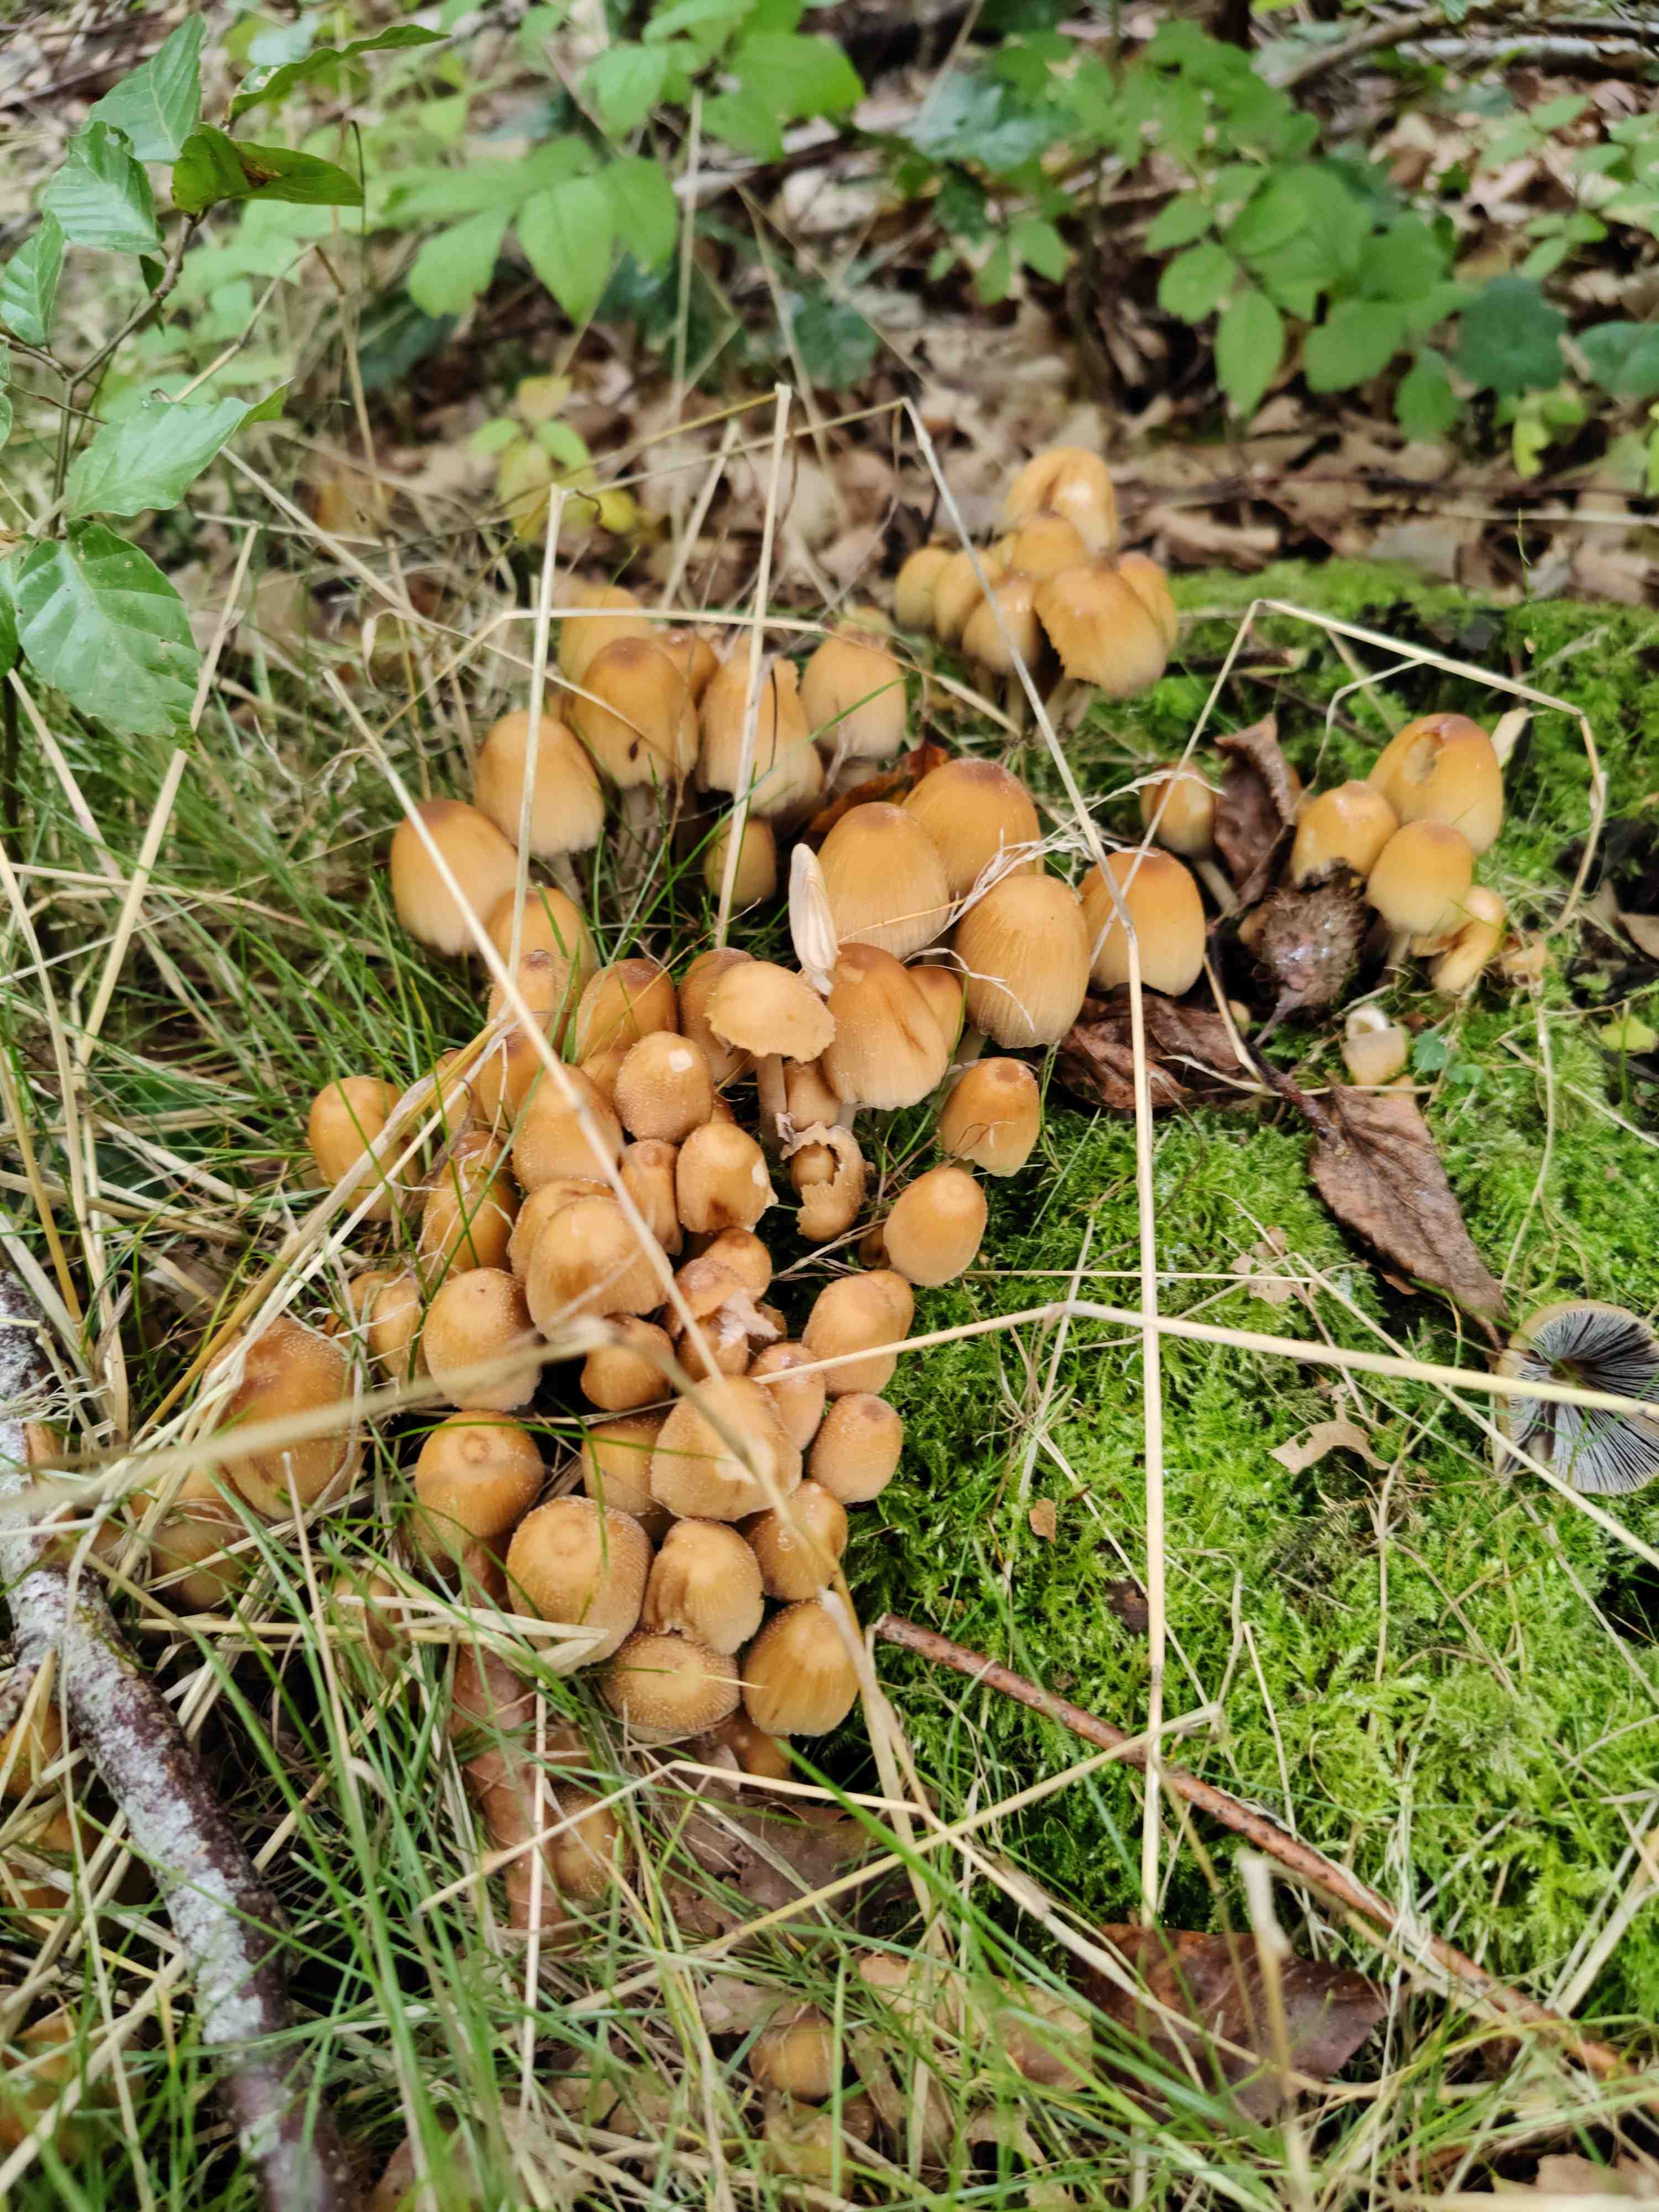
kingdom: Fungi
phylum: Basidiomycota
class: Agaricomycetes
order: Agaricales
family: Psathyrellaceae
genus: Coprinellus
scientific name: Coprinellus
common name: blækhat
